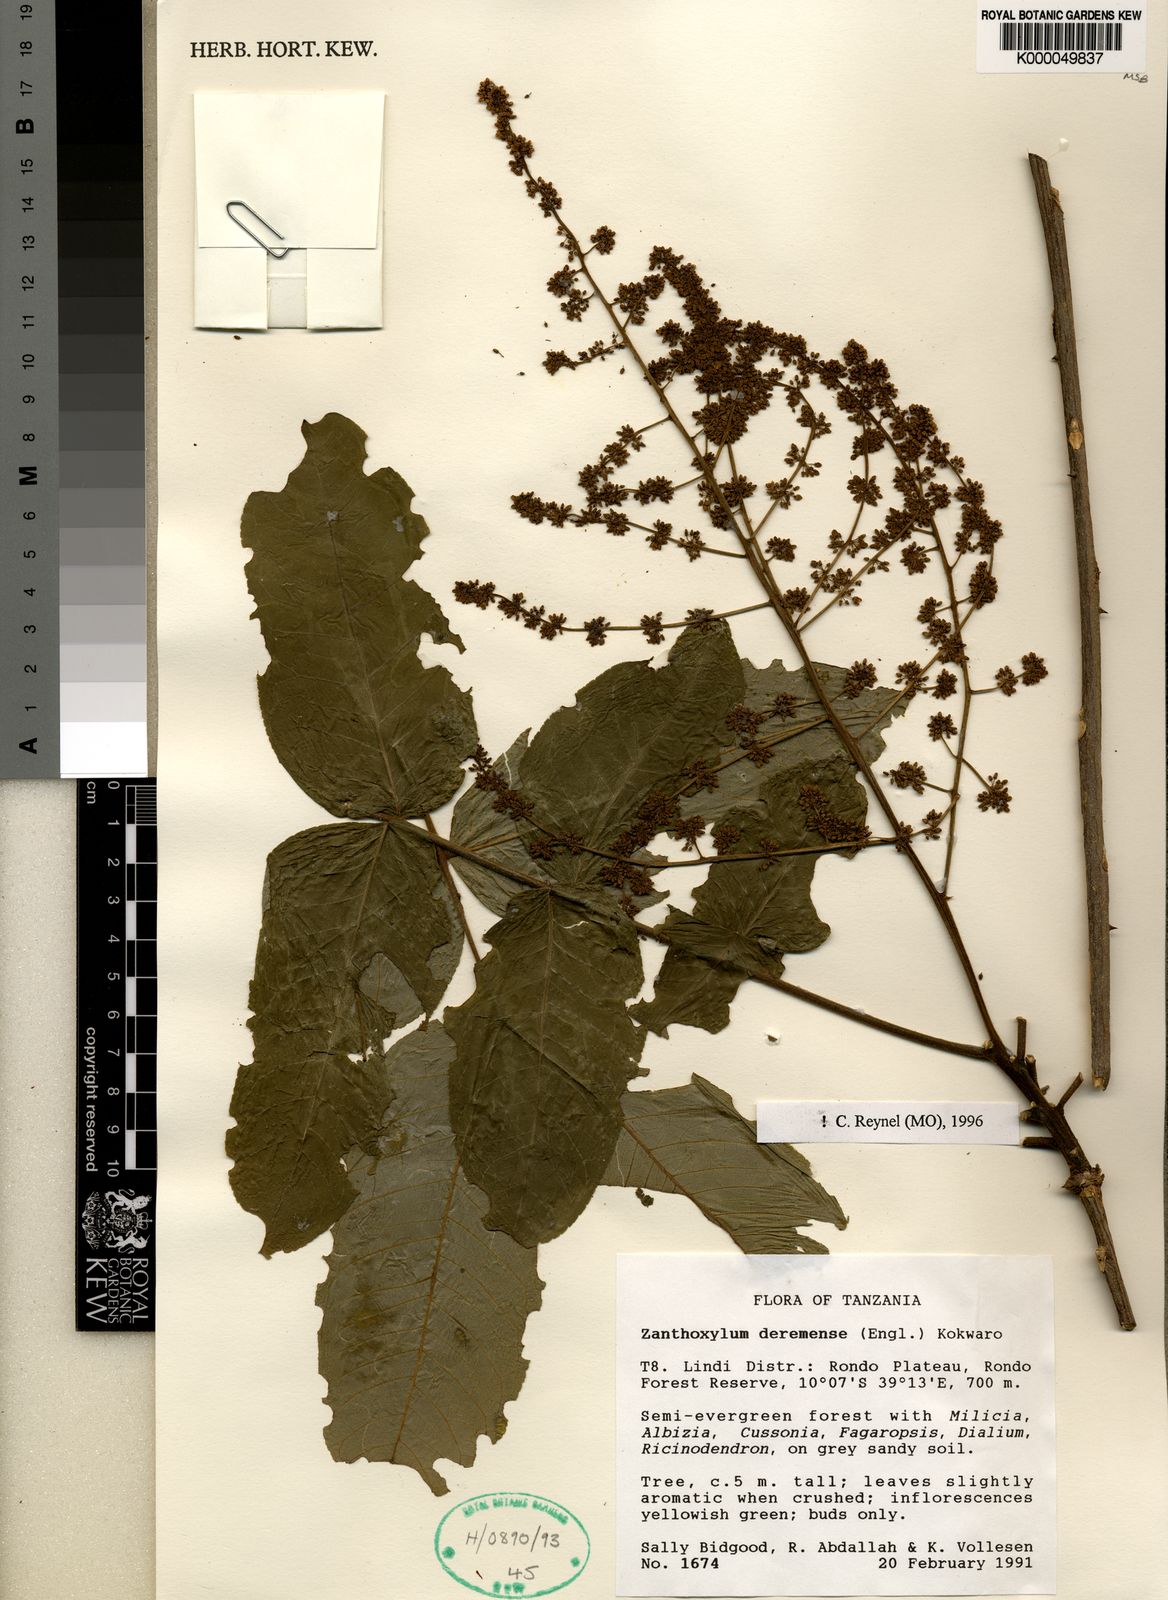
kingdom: Plantae
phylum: Tracheophyta
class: Magnoliopsida
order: Sapindales
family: Rutaceae
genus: Zanthoxylum
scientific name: Zanthoxylum
